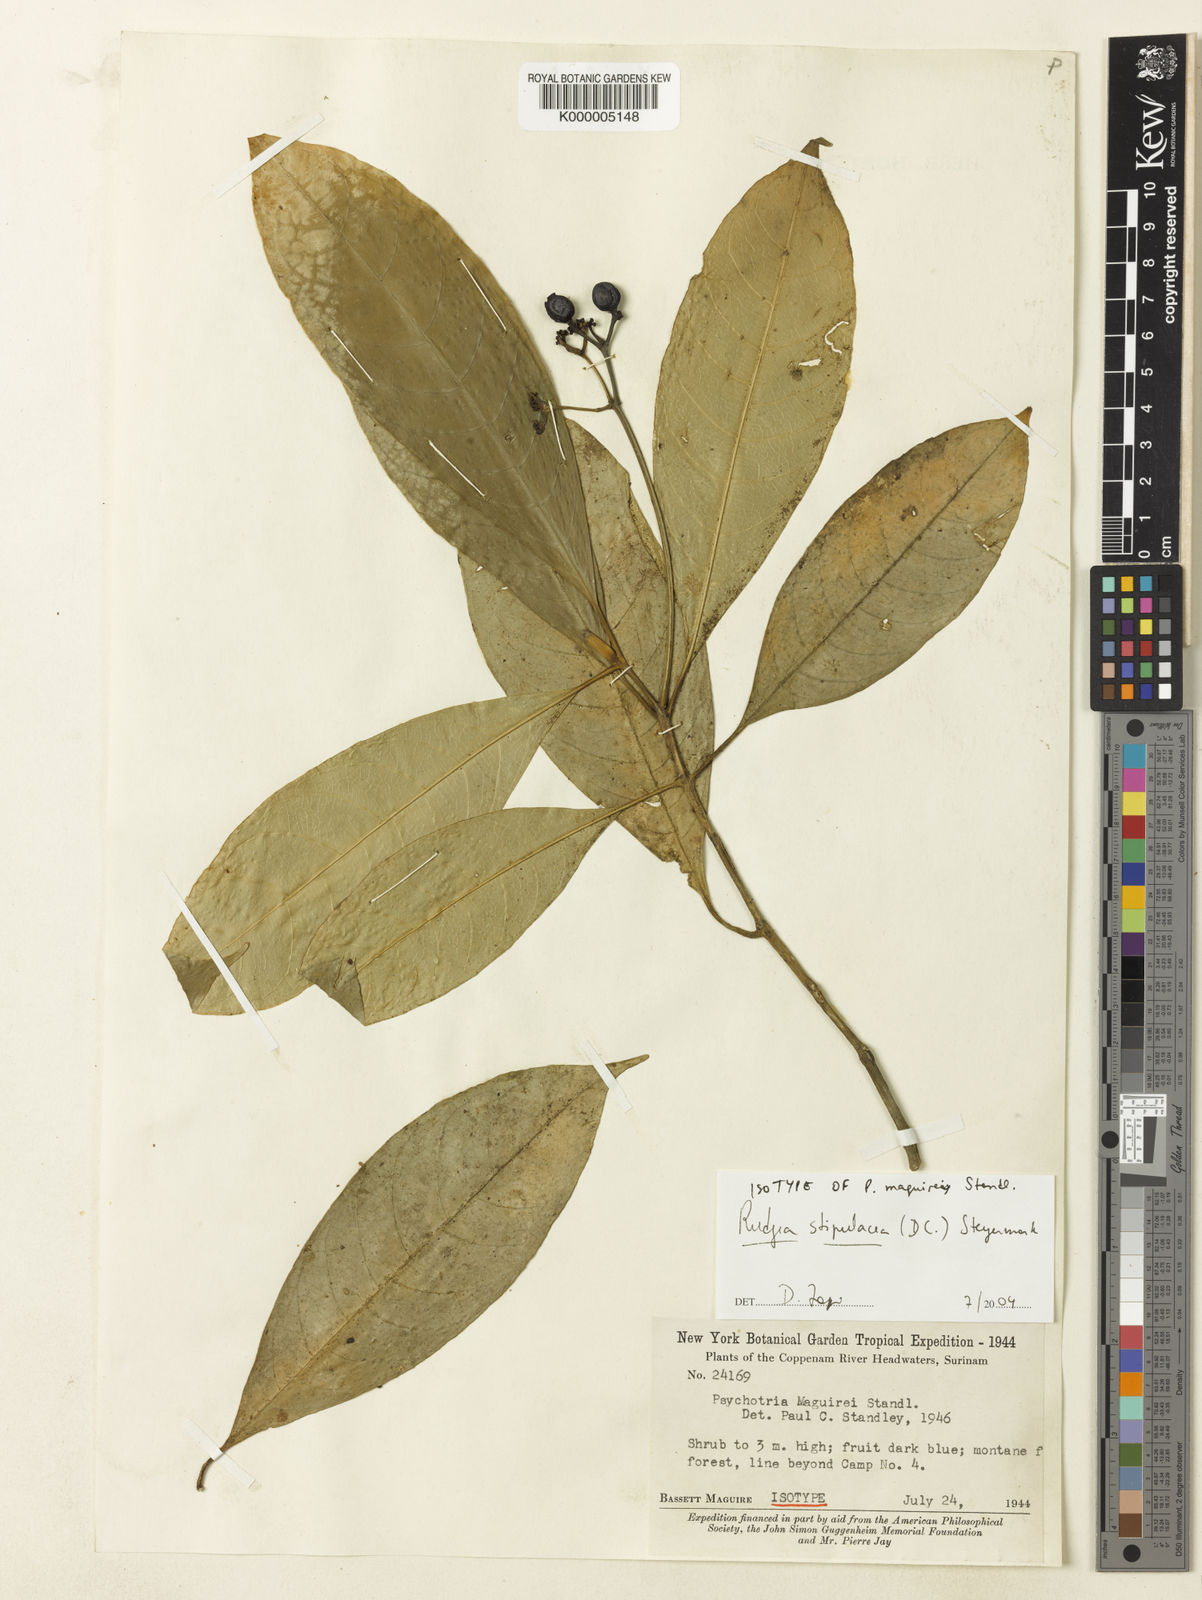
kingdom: Plantae
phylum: Tracheophyta
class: Magnoliopsida
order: Gentianales
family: Rubiaceae
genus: Rudgea
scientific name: Rudgea stipulacea
